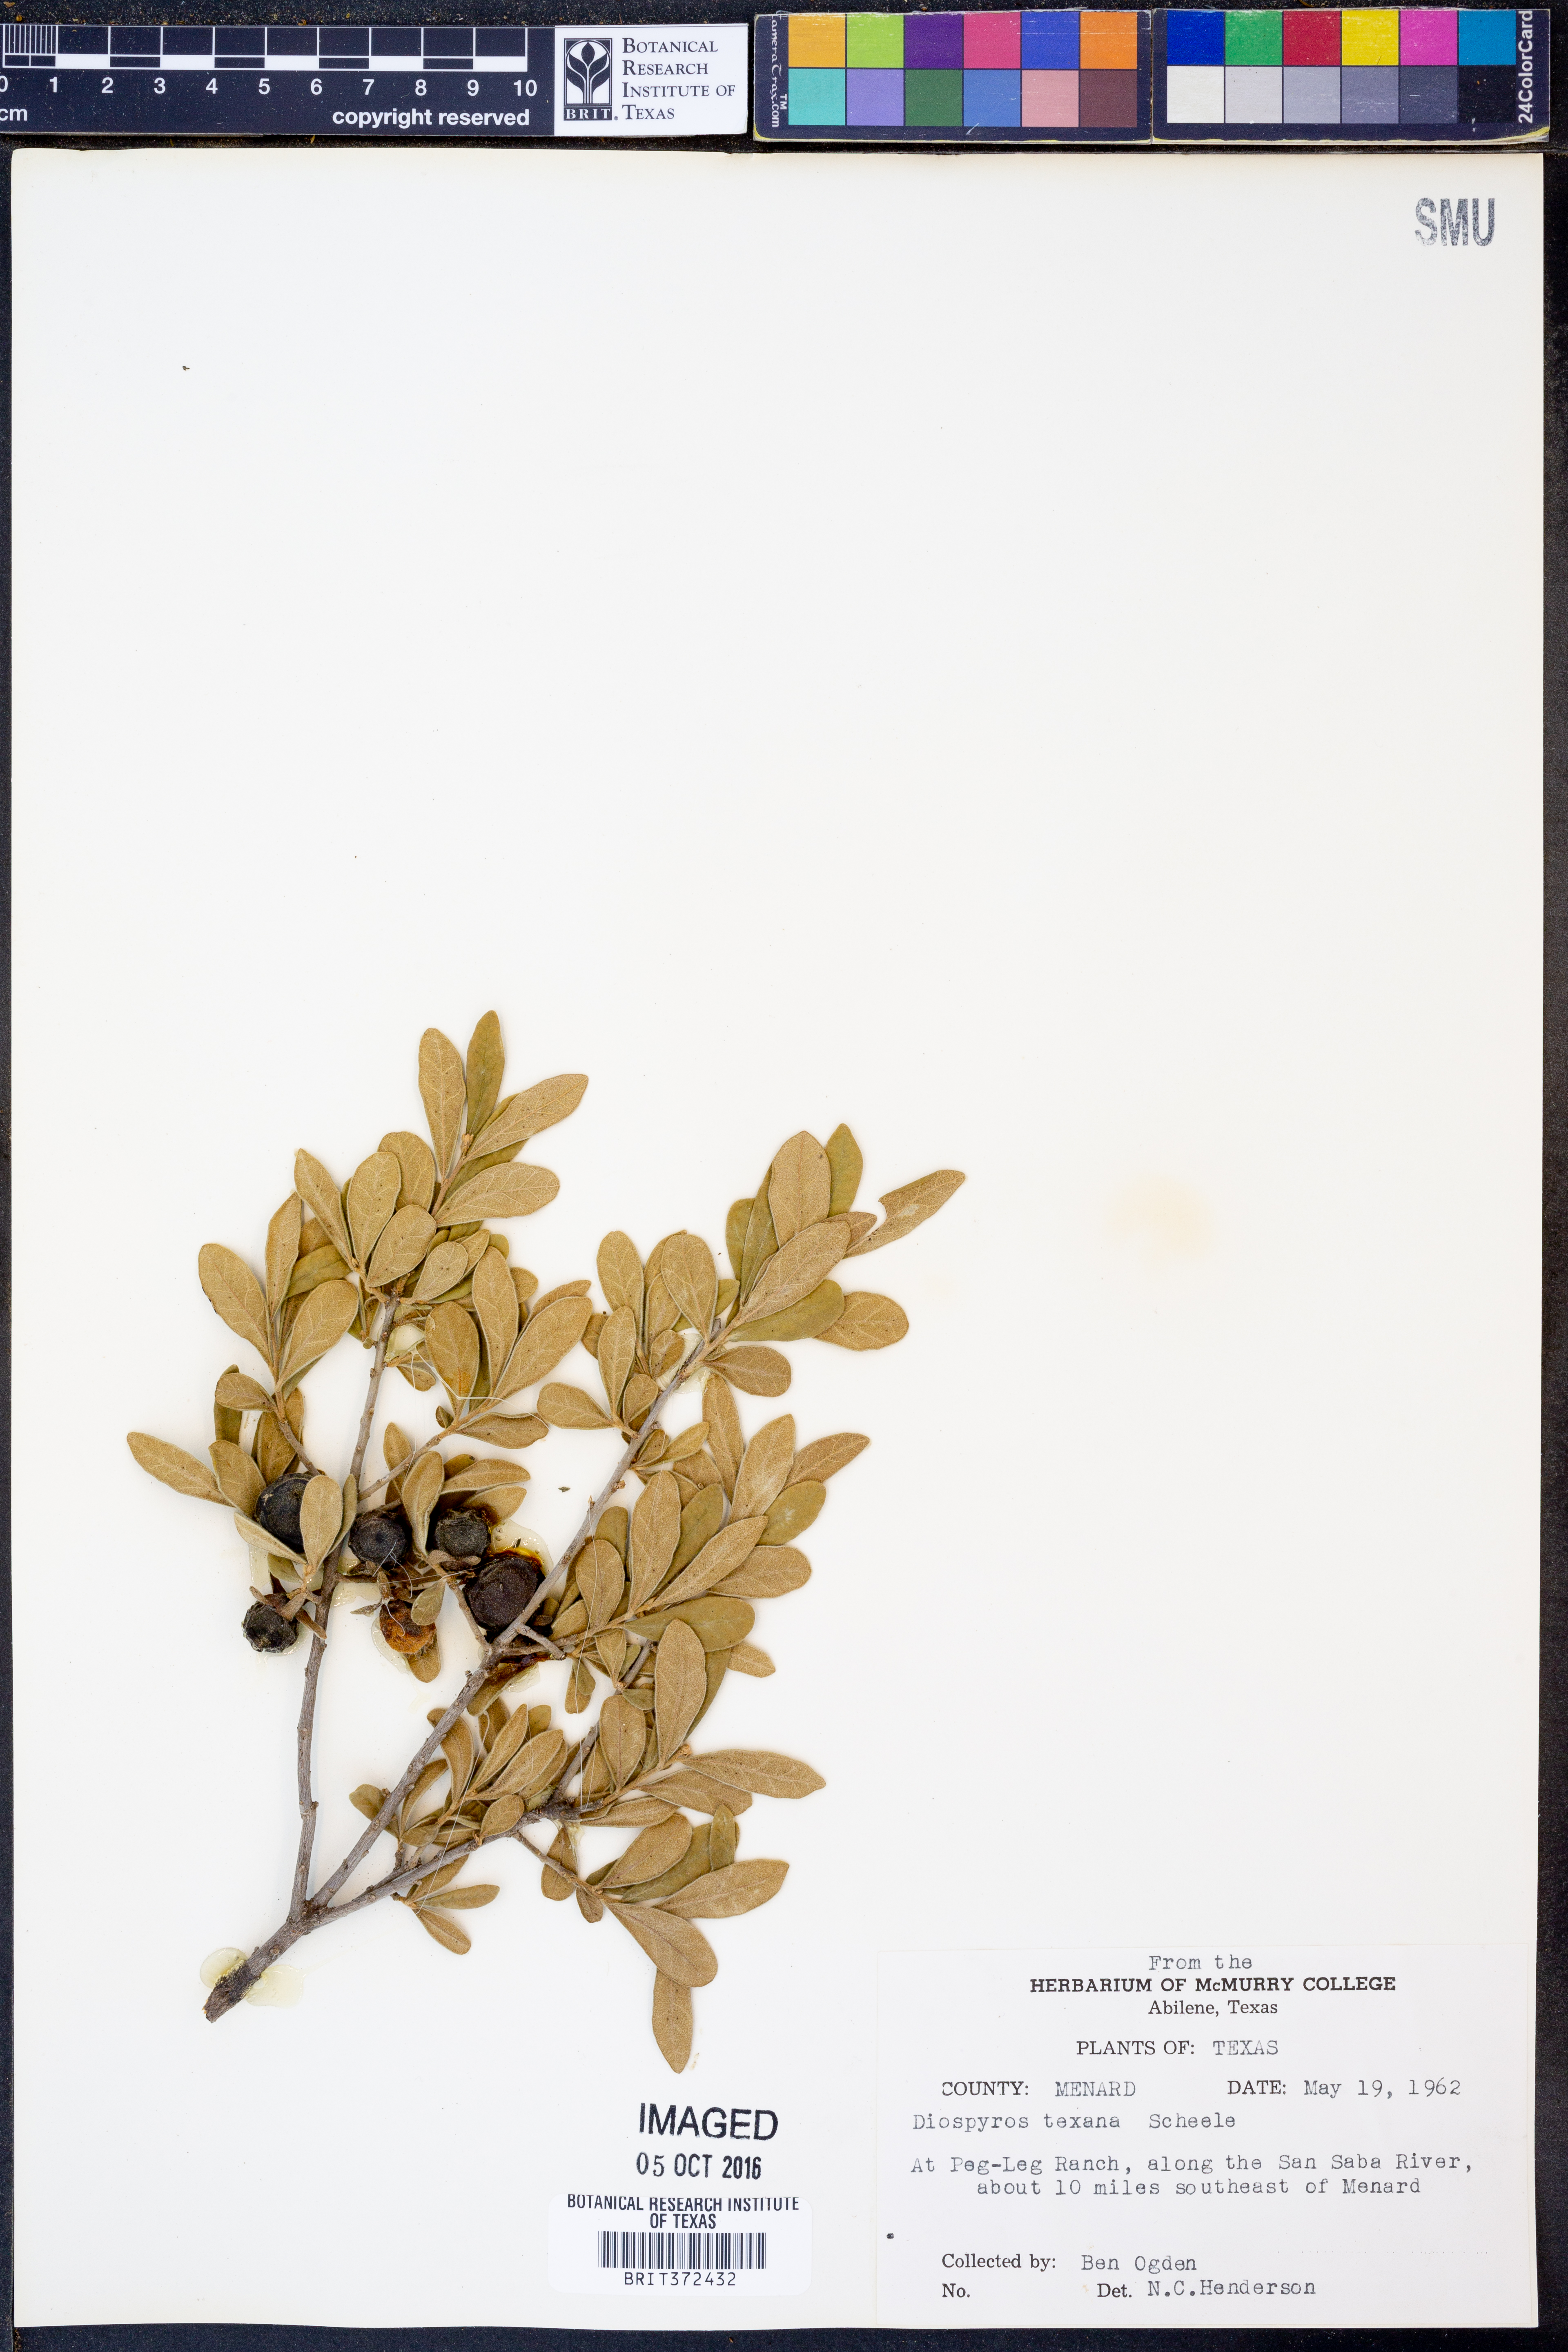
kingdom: Plantae
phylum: Tracheophyta
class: Magnoliopsida
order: Ericales
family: Ebenaceae
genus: Diospyros
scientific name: Diospyros texana
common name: Texas persimmon
